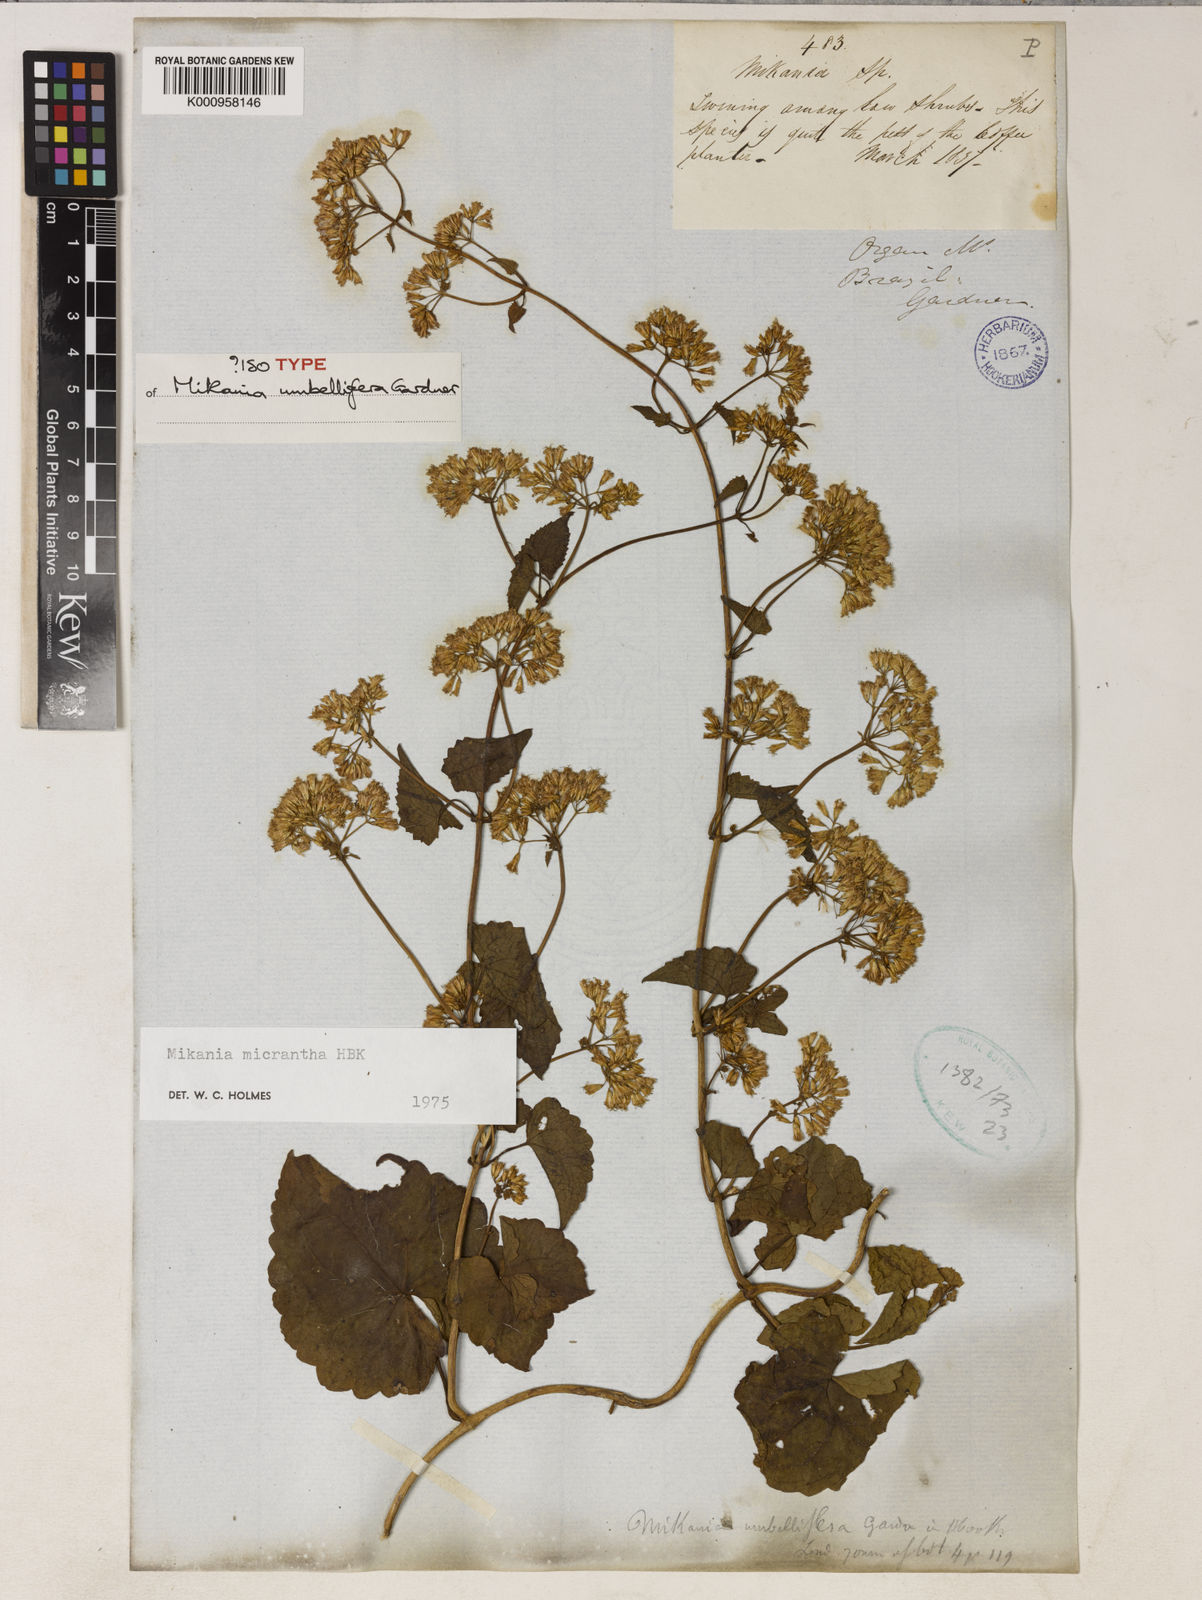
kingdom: Plantae
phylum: Tracheophyta
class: Magnoliopsida
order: Asterales
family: Asteraceae
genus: Mikania
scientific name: Mikania micrantha
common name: Mile-a-minute
